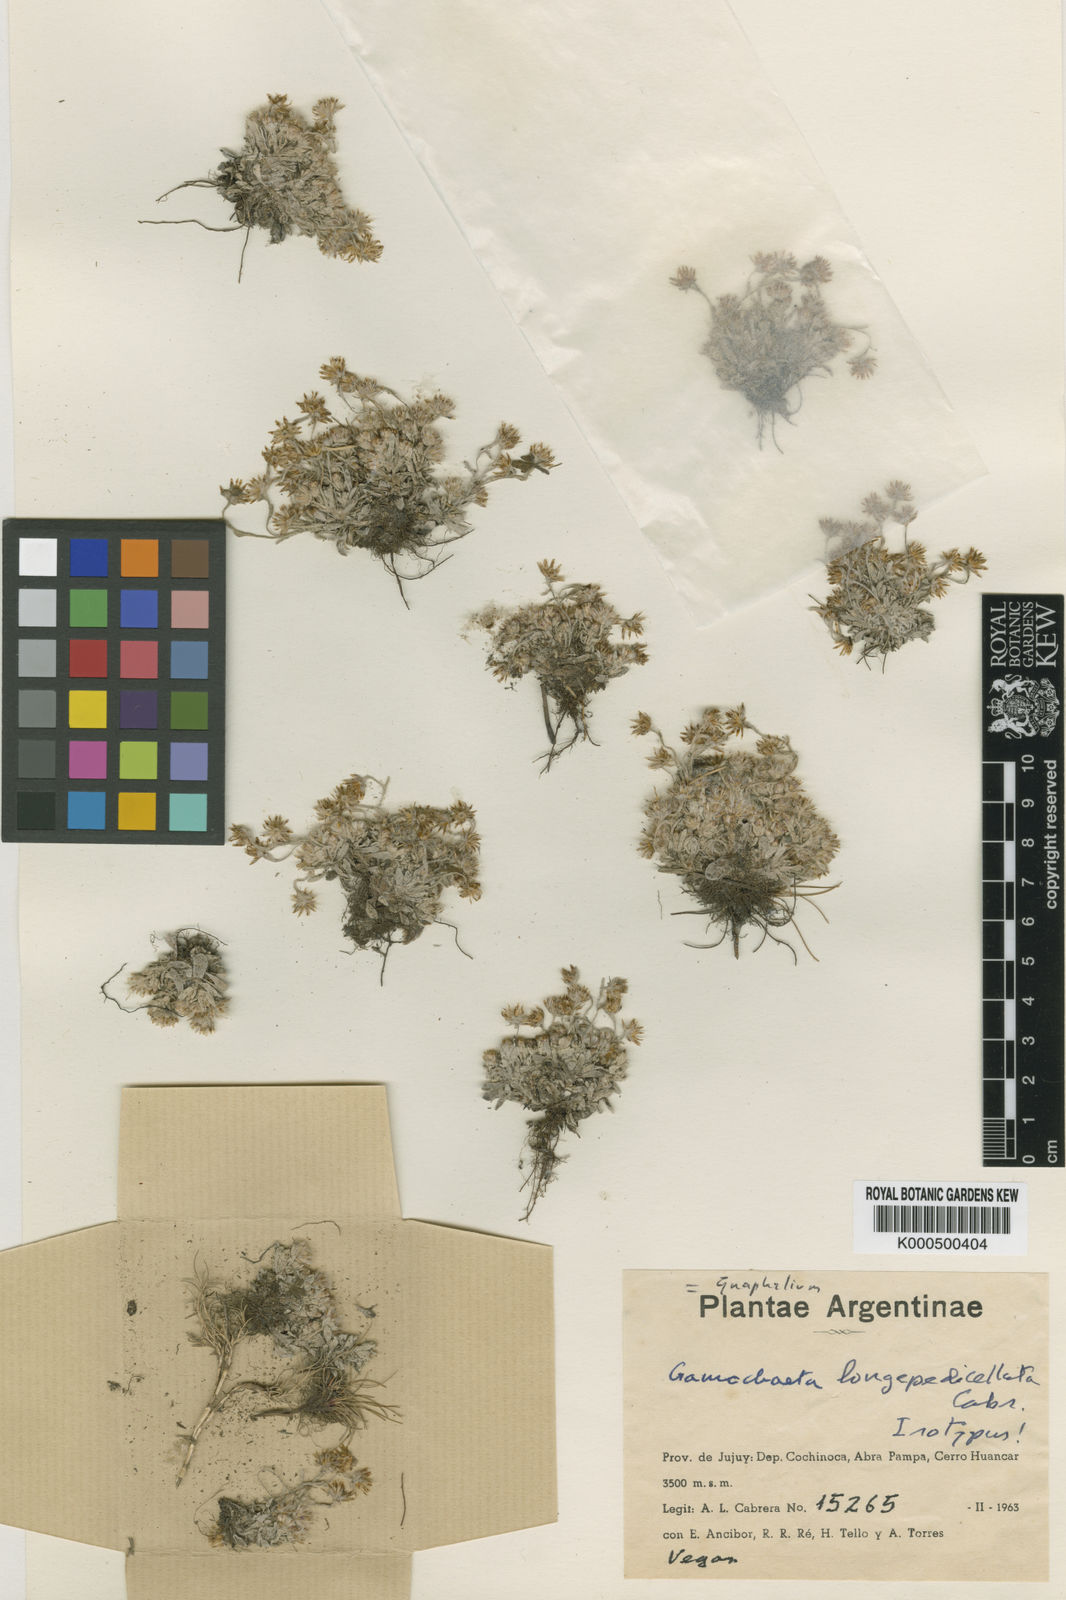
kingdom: Plantae
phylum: Tracheophyta
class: Magnoliopsida
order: Asterales
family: Asteraceae
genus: Gnaphalium
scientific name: Gnaphalium
